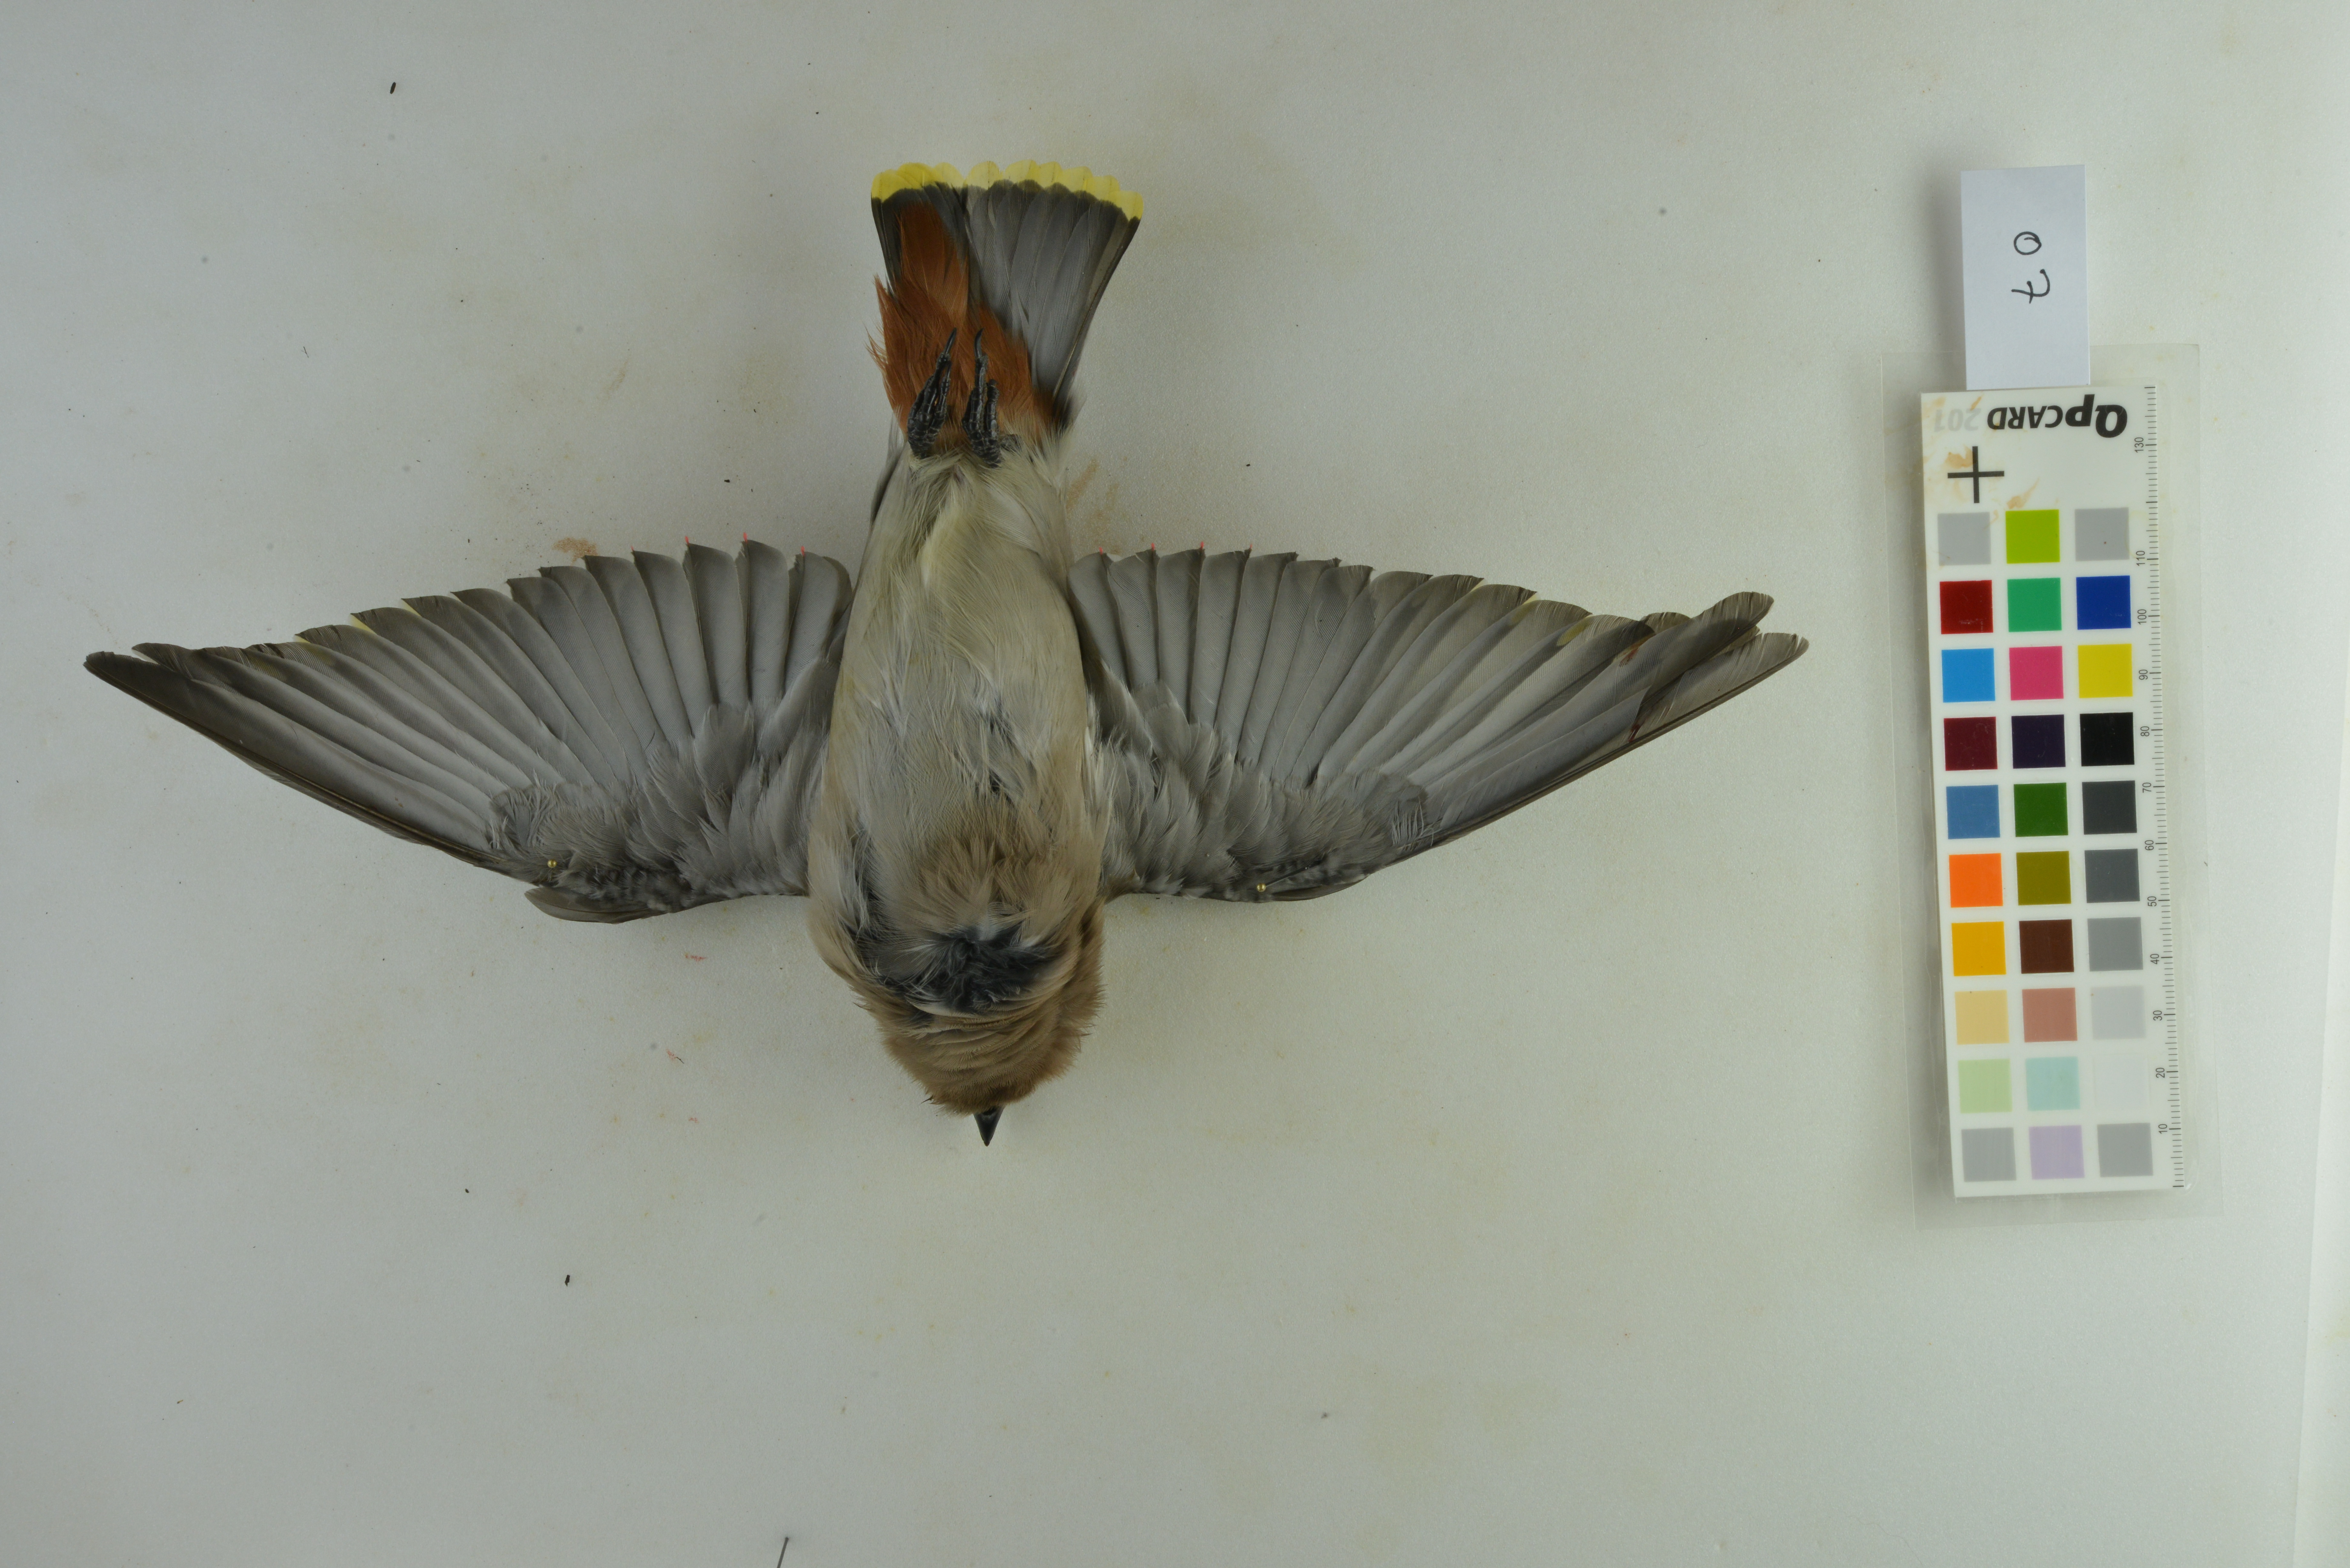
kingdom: Animalia
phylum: Chordata
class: Aves
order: Passeriformes
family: Bombycillidae
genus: Bombycilla
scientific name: Bombycilla garrulus
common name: Bohemian waxwing
